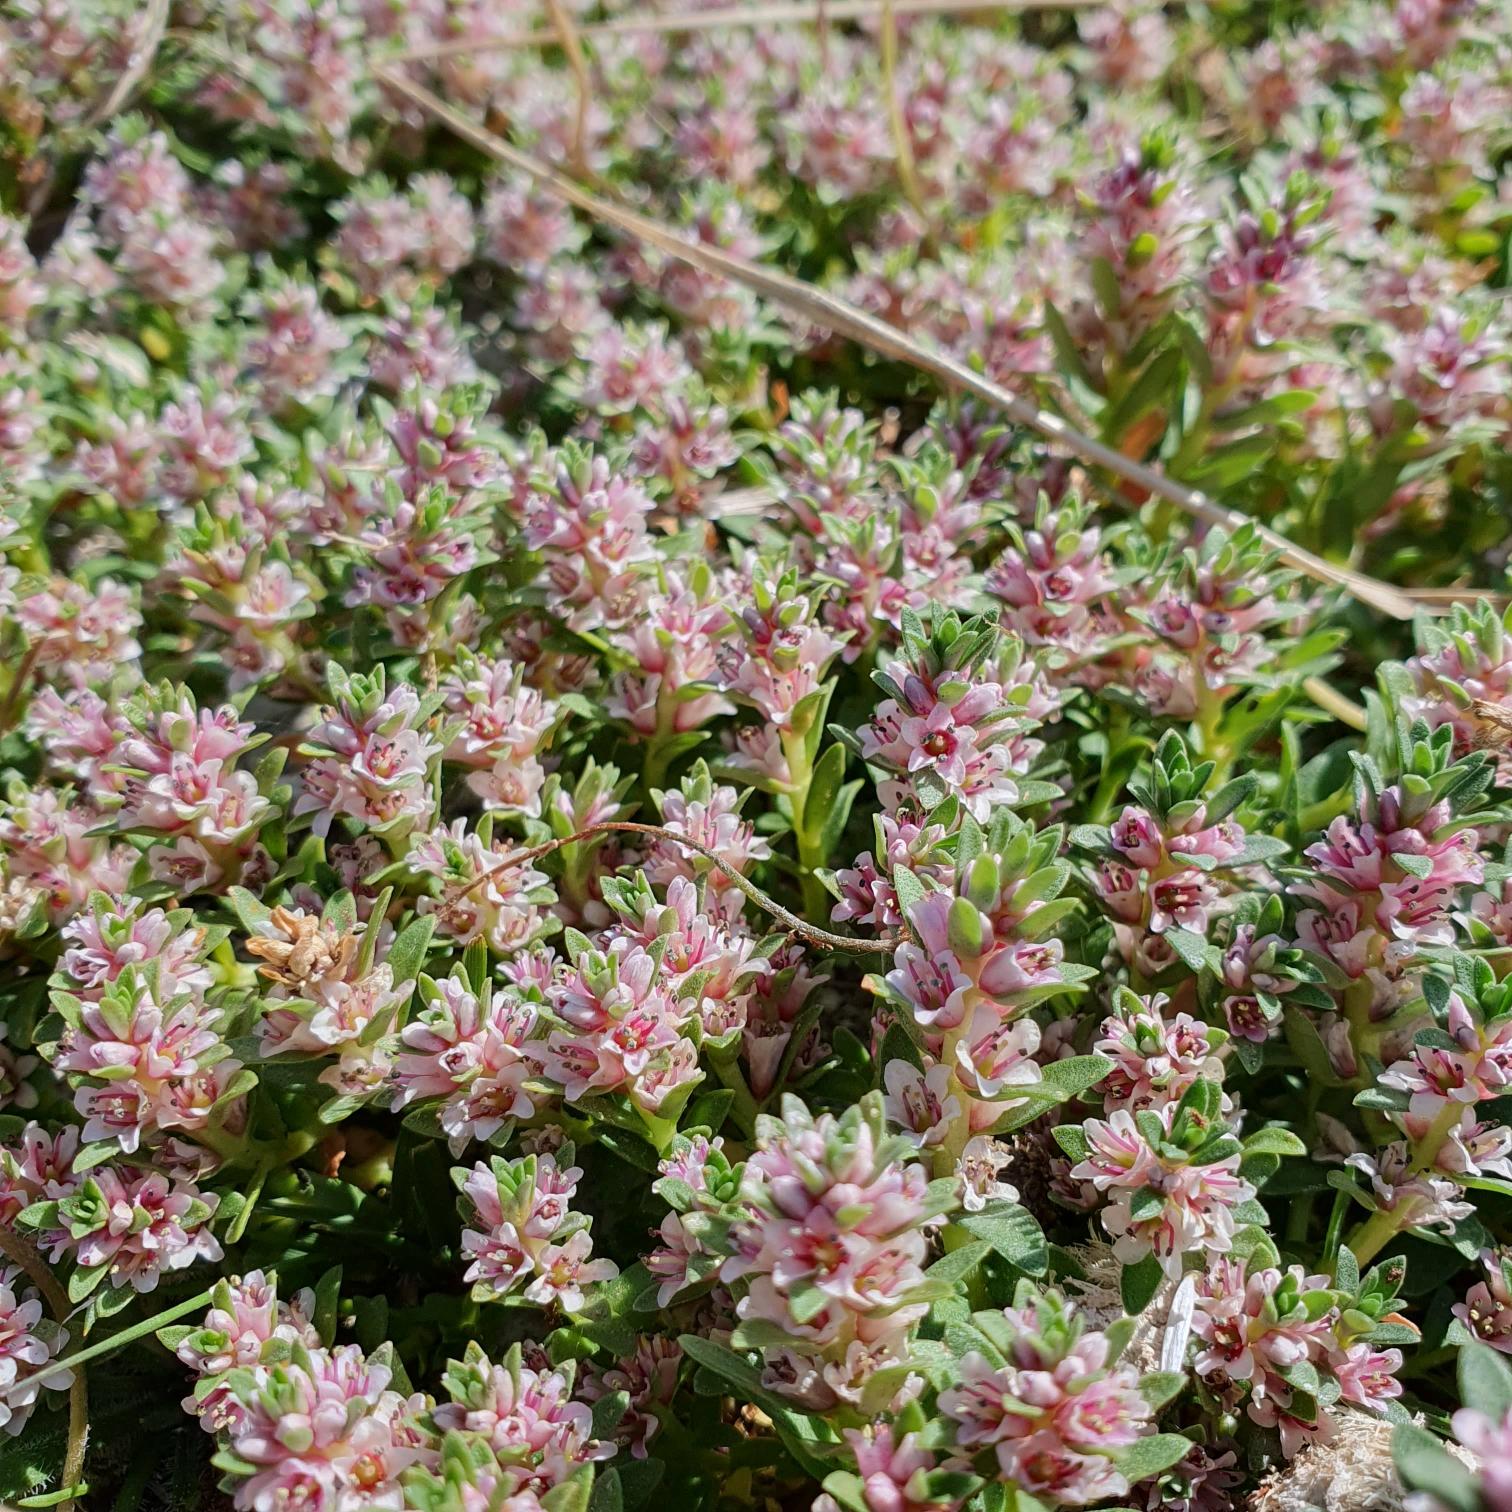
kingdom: Plantae
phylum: Tracheophyta
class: Magnoliopsida
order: Ericales
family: Primulaceae
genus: Lysimachia
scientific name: Lysimachia maritima
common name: Sandkryb
